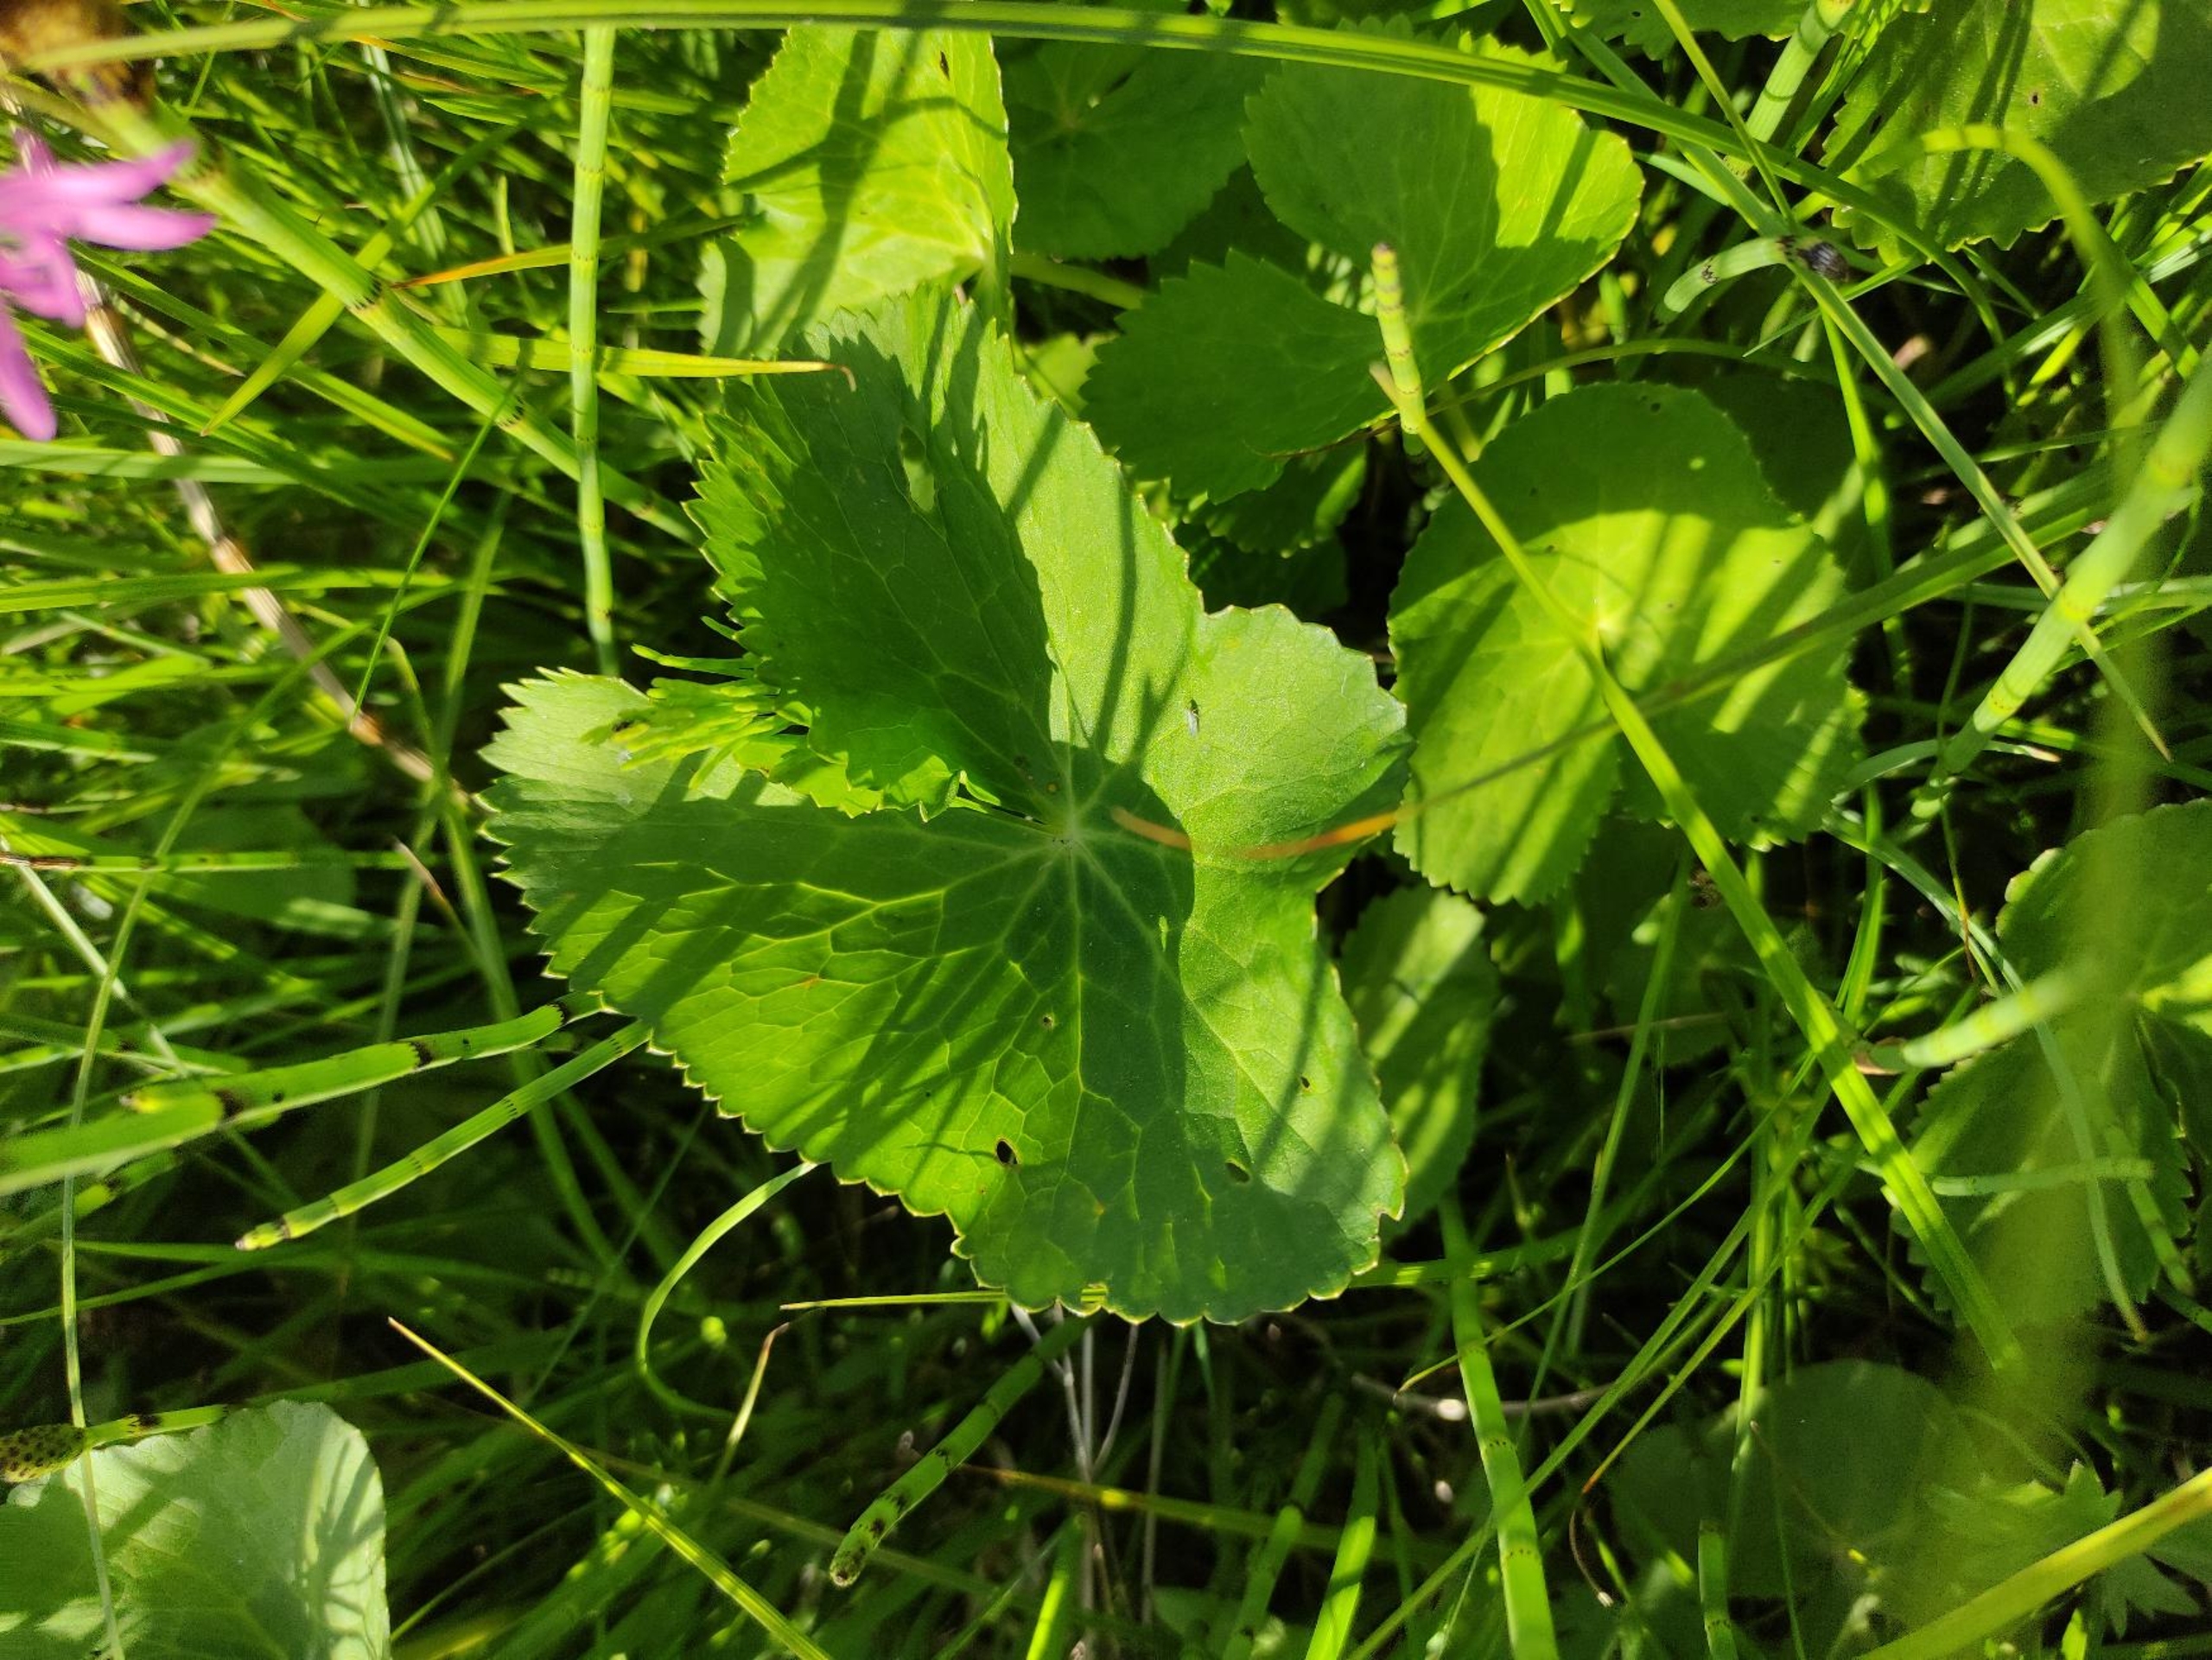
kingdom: Plantae
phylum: Tracheophyta
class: Magnoliopsida
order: Ranunculales
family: Ranunculaceae
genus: Caltha
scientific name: Caltha palustris
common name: Eng-kabbeleje
